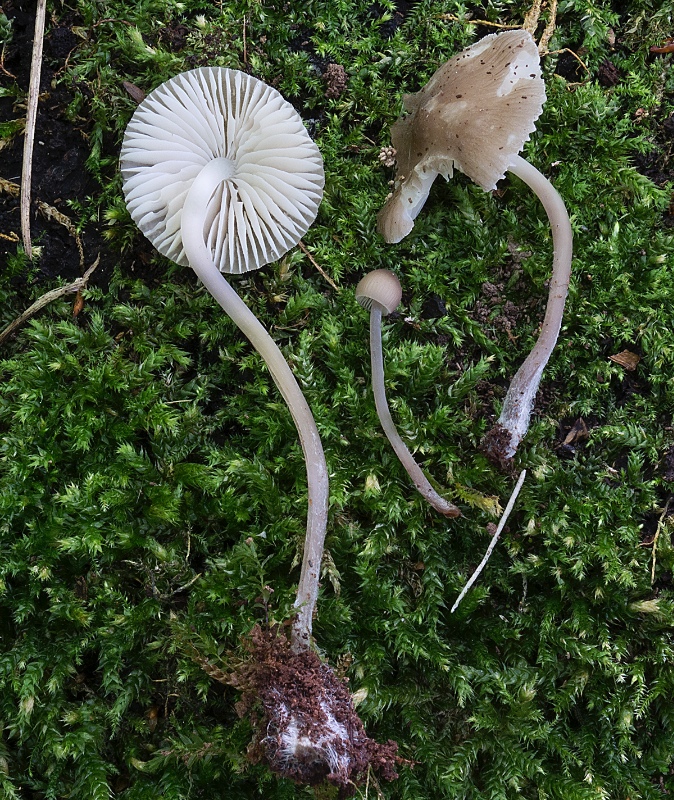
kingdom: Fungi
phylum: Basidiomycota
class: Agaricomycetes
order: Agaricales
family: Mycenaceae
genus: Mycena
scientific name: Mycena abramsii
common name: sommer-huesvamp
